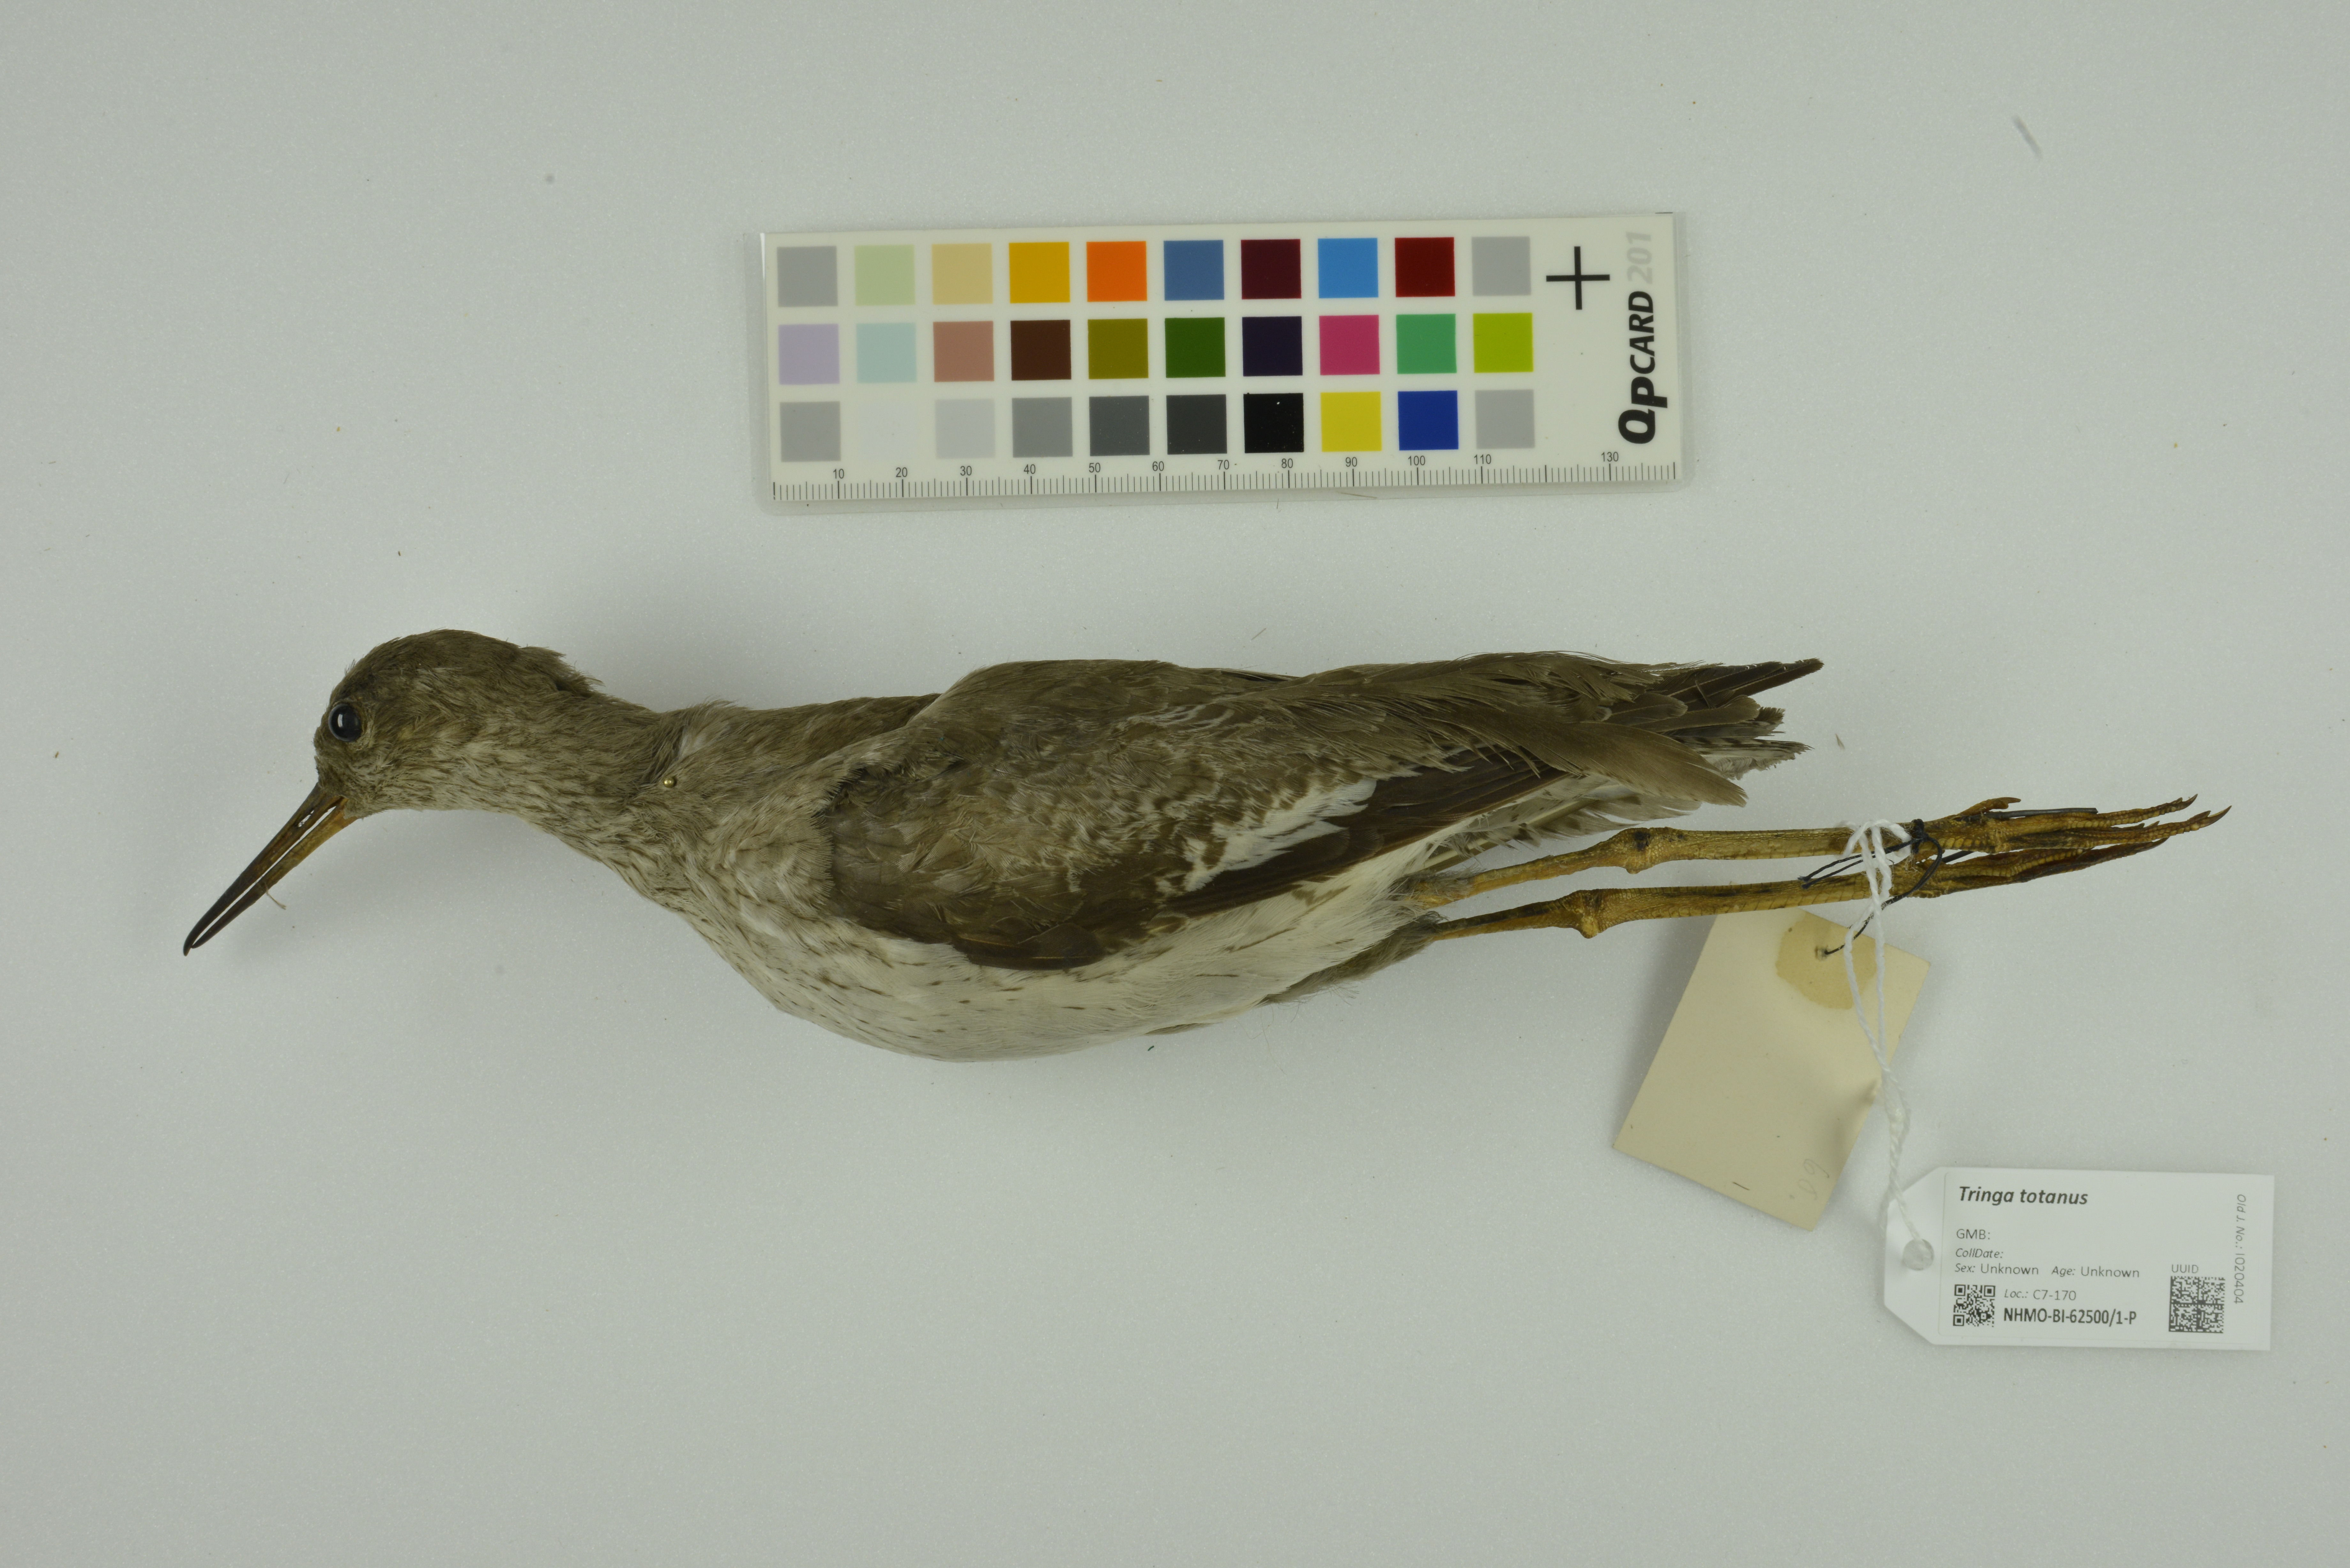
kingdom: Animalia
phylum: Chordata
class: Aves
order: Charadriiformes
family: Scolopacidae
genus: Tringa
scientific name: Tringa totanus
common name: Common redshank
